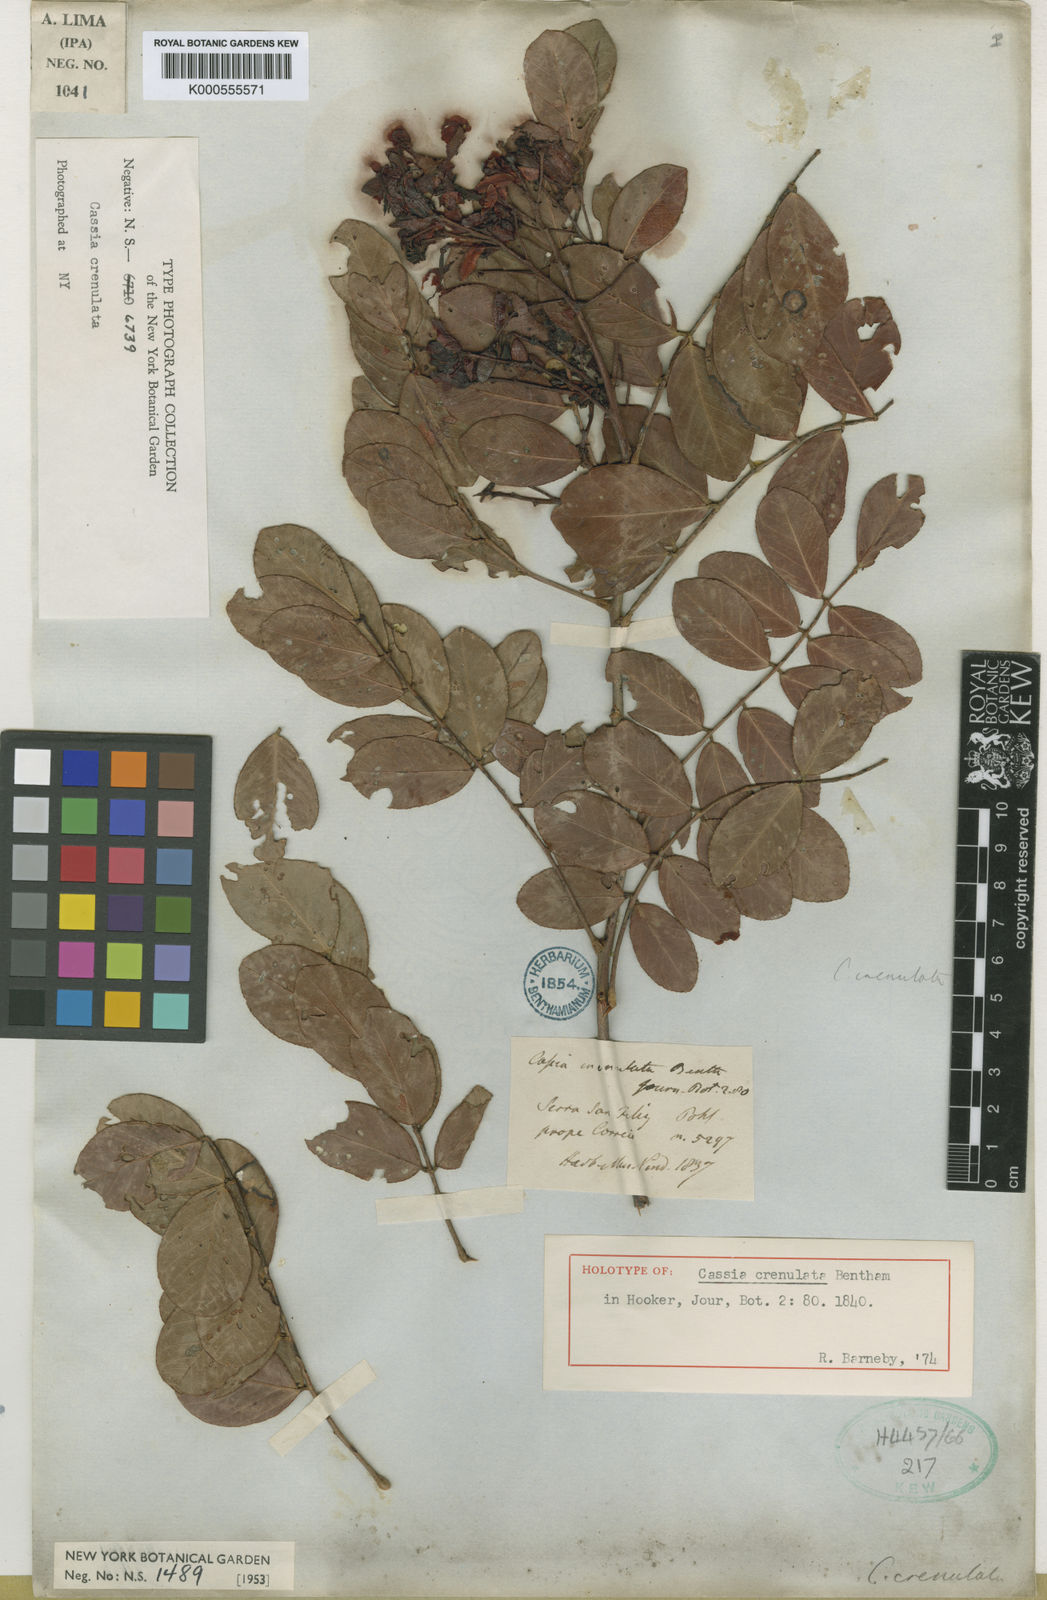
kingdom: Plantae
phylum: Tracheophyta
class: Magnoliopsida
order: Fabales
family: Fabaceae
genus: Chamaecrista
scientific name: Chamaecrista crenulata
